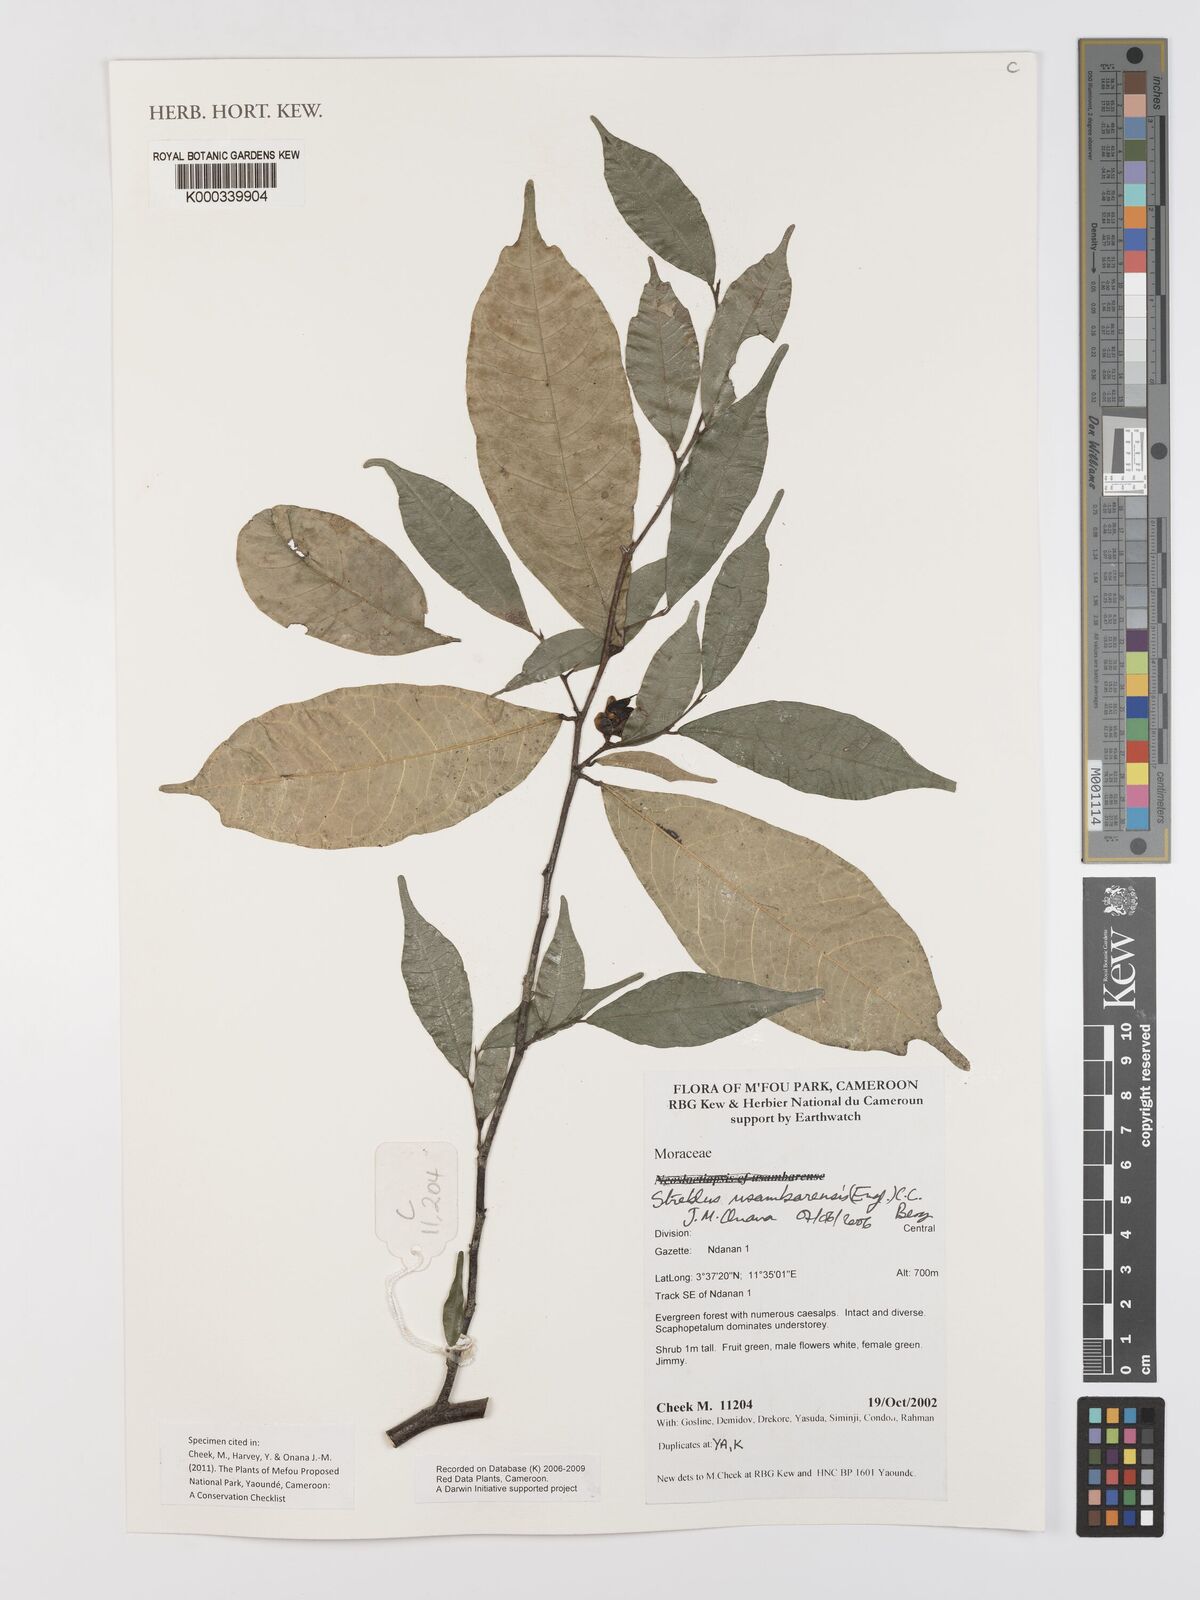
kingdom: Plantae
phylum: Tracheophyta
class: Magnoliopsida
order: Rosales
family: Moraceae
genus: Sloetiopsis
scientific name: Sloetiopsis usambarensis
